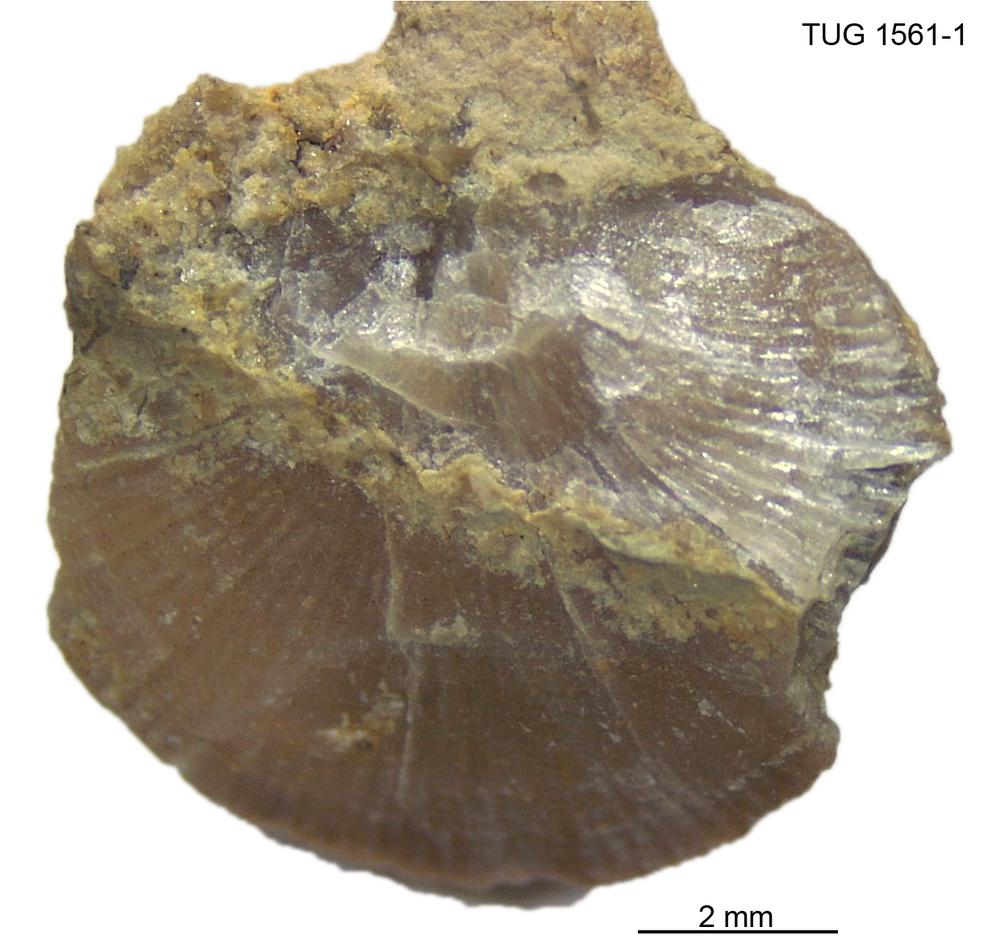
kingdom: Animalia
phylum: Brachiopoda
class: Rhynchonellata
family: Dalmanellidae
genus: Visbyella
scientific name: Visbyella
